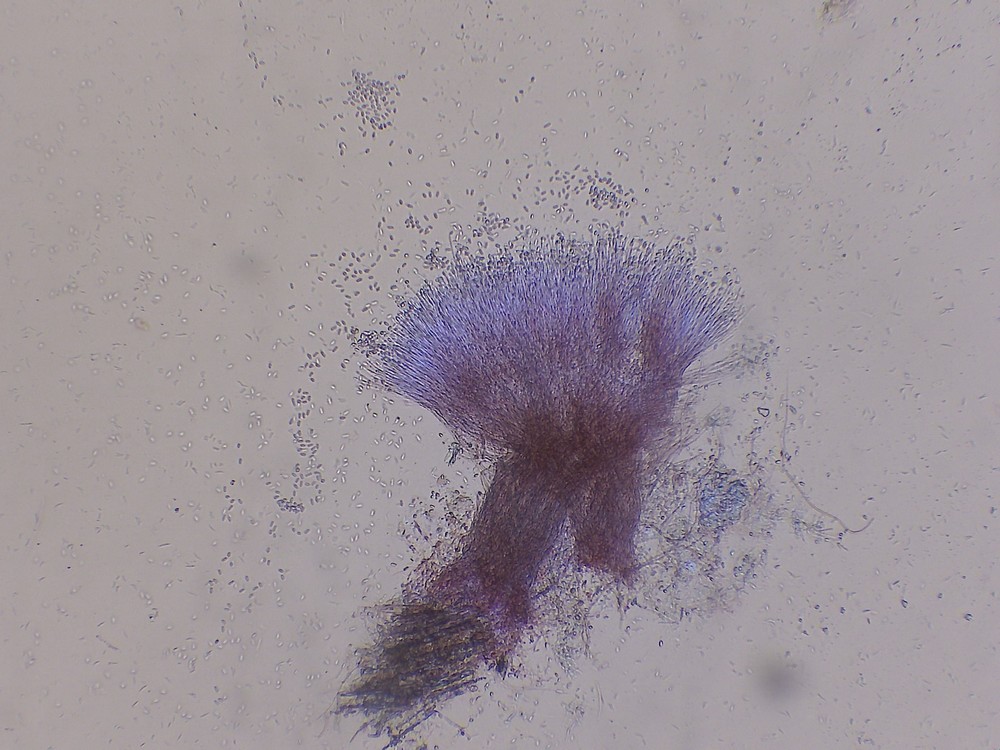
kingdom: Fungi
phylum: Ascomycota
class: Sordariomycetes
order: Hypocreales
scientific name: Hypocreales
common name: kødkerneordenen
